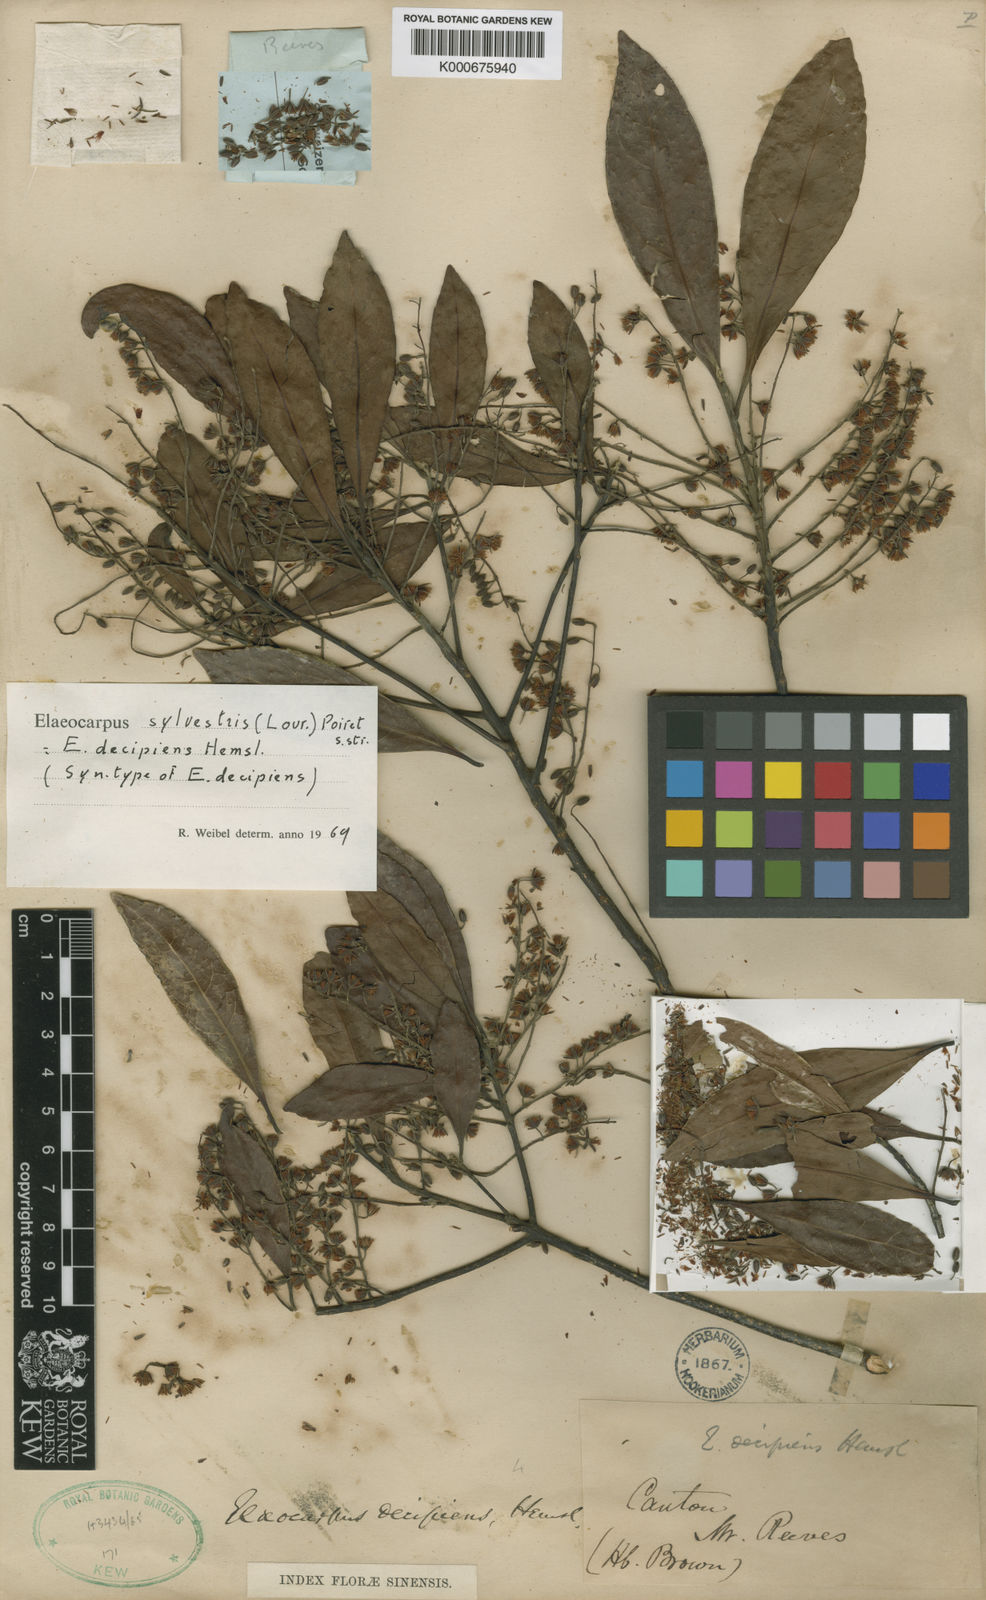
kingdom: Plantae
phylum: Tracheophyta
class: Magnoliopsida
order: Oxalidales
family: Elaeocarpaceae
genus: Elaeocarpus
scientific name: Elaeocarpus decipiens
